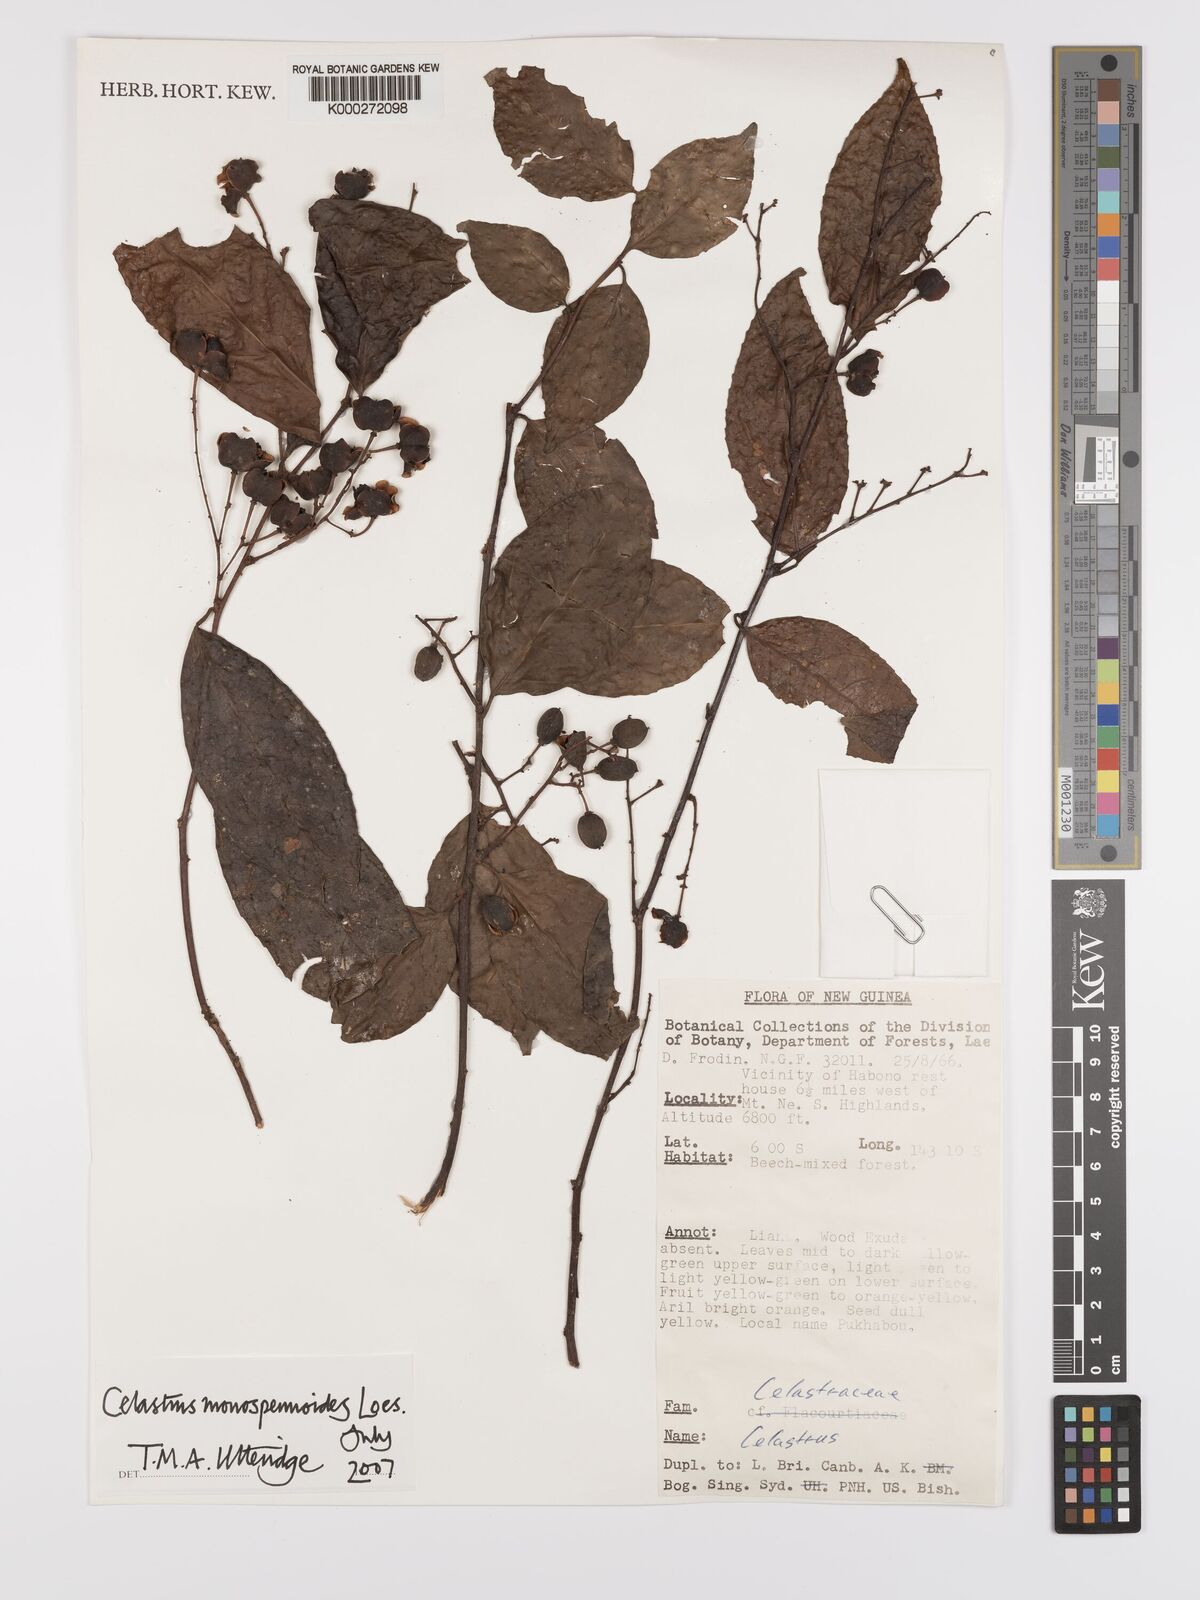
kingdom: Plantae
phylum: Tracheophyta
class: Magnoliopsida
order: Celastrales
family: Celastraceae
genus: Celastrus
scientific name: Celastrus monospermoides
